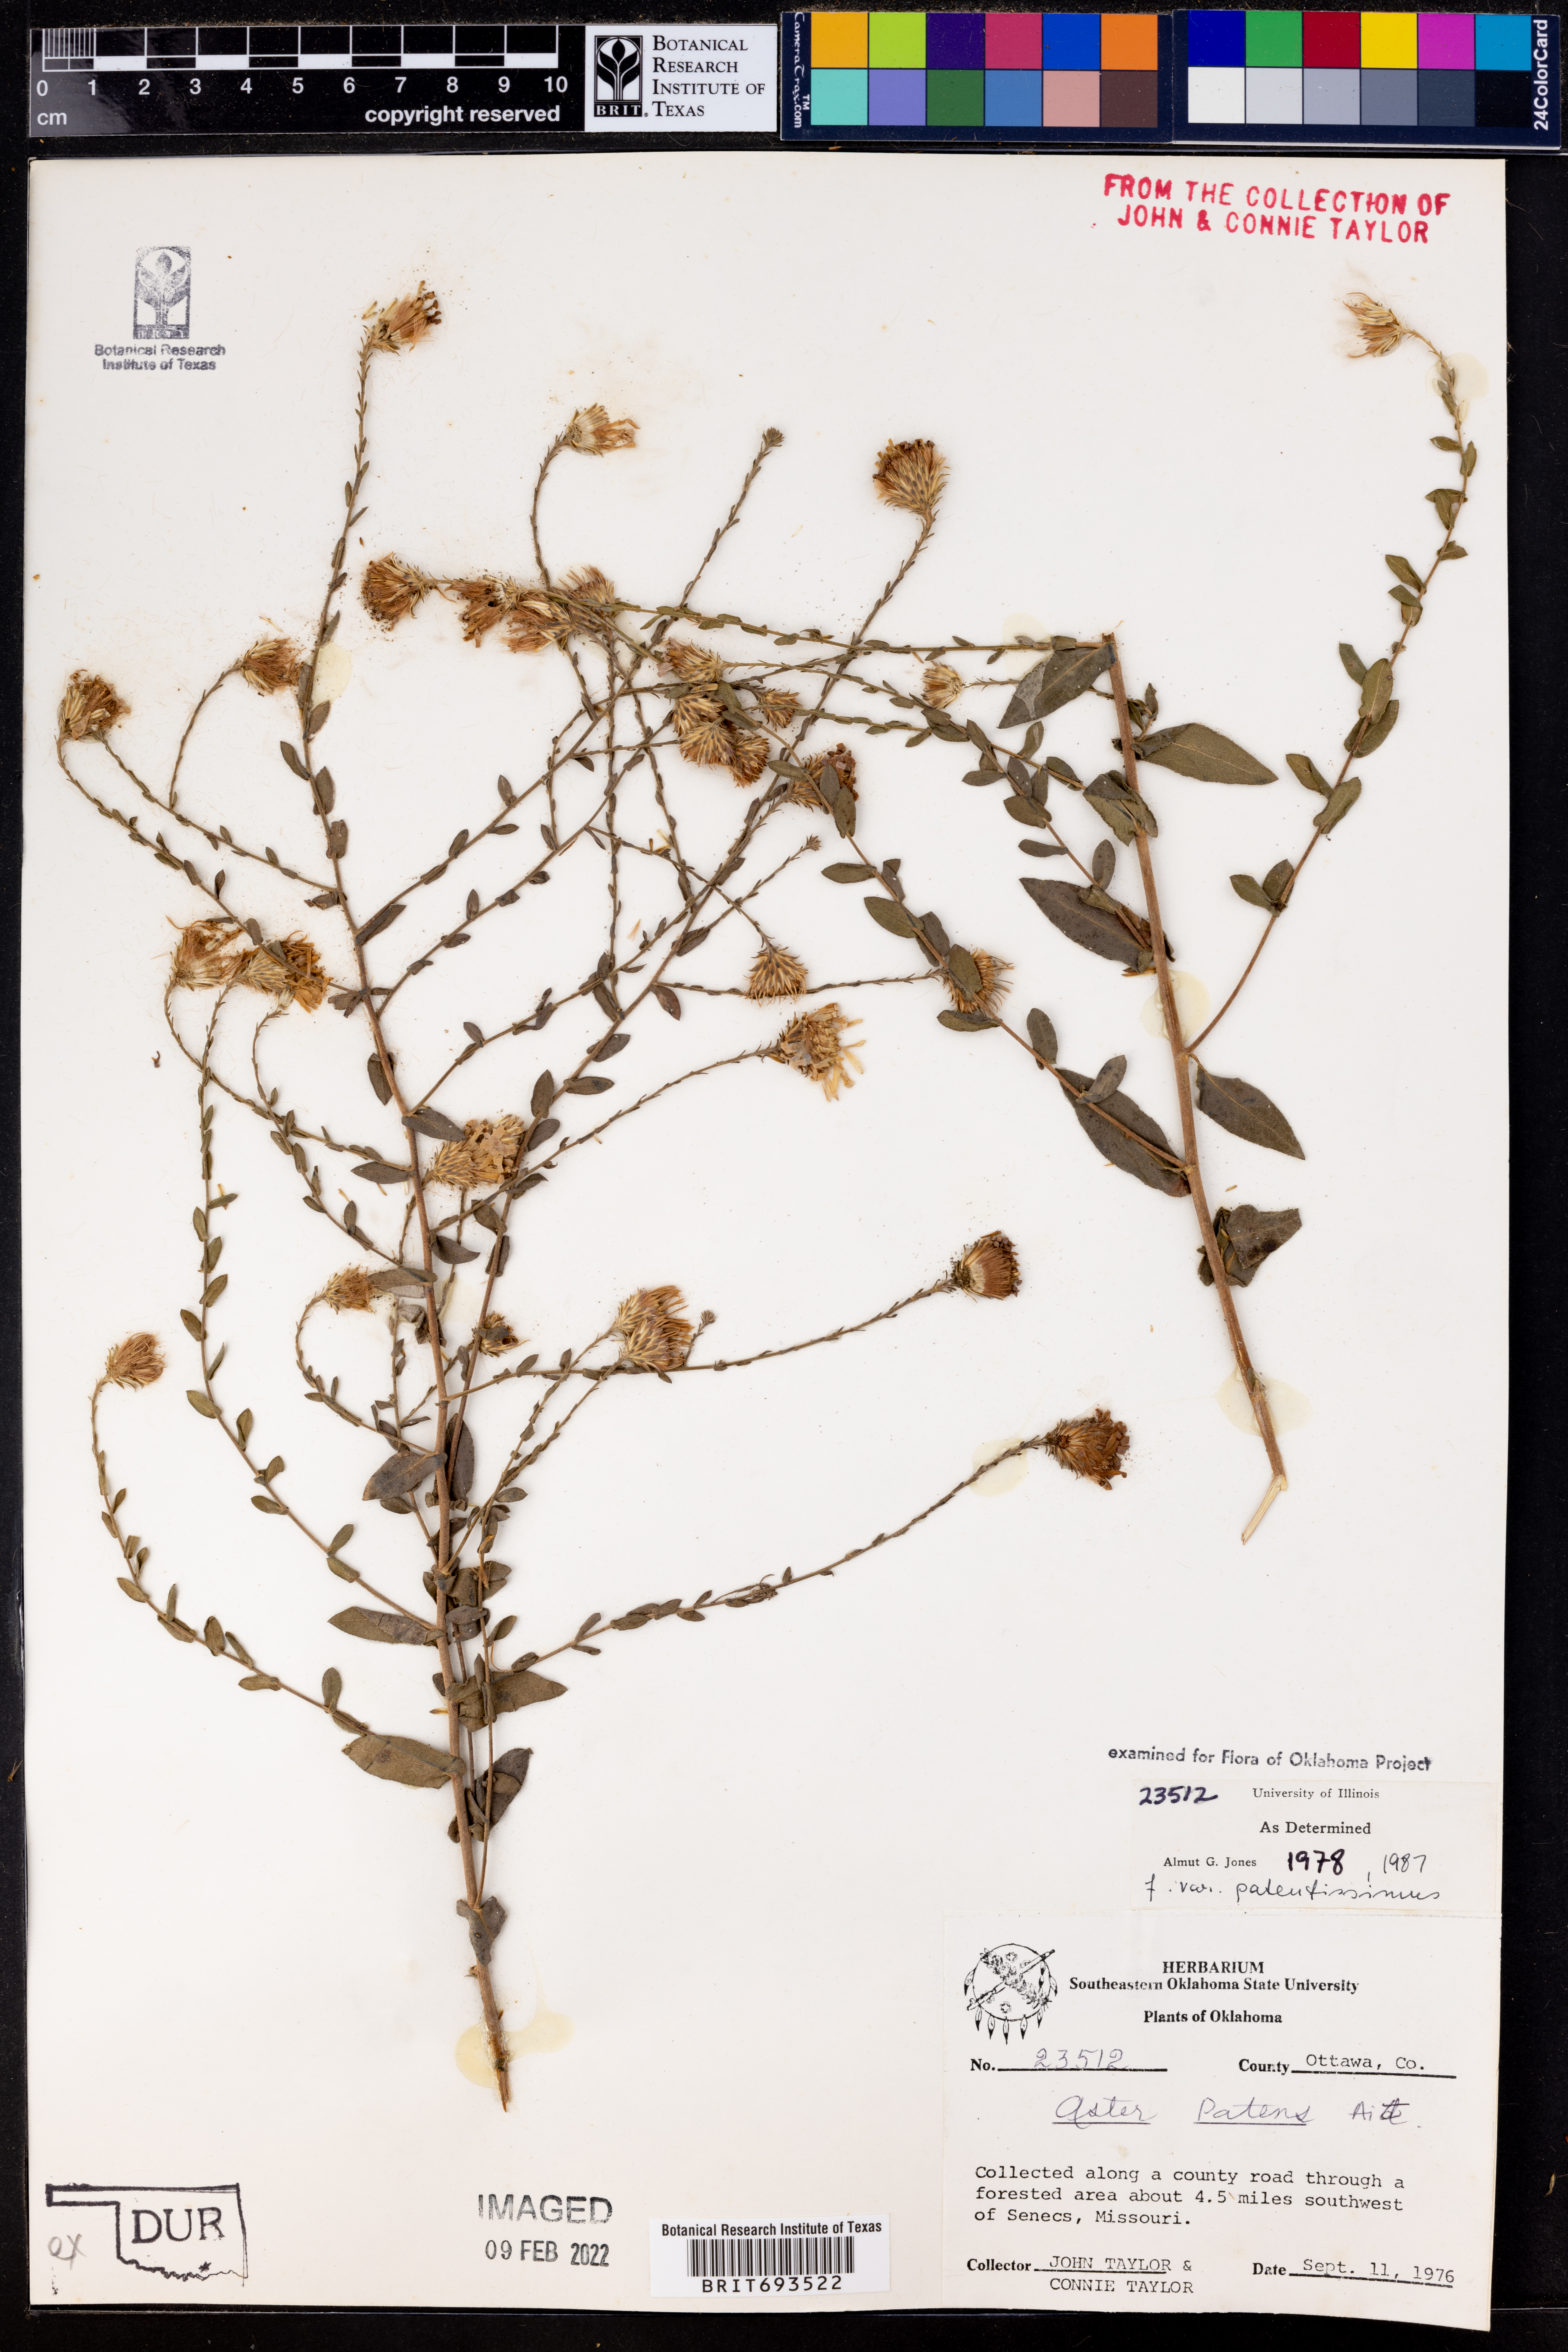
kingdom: Plantae
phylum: Tracheophyta
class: Magnoliopsida
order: Asterales
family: Asteraceae
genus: Symphyotrichum
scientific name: Symphyotrichum patens
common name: Late purple aster
